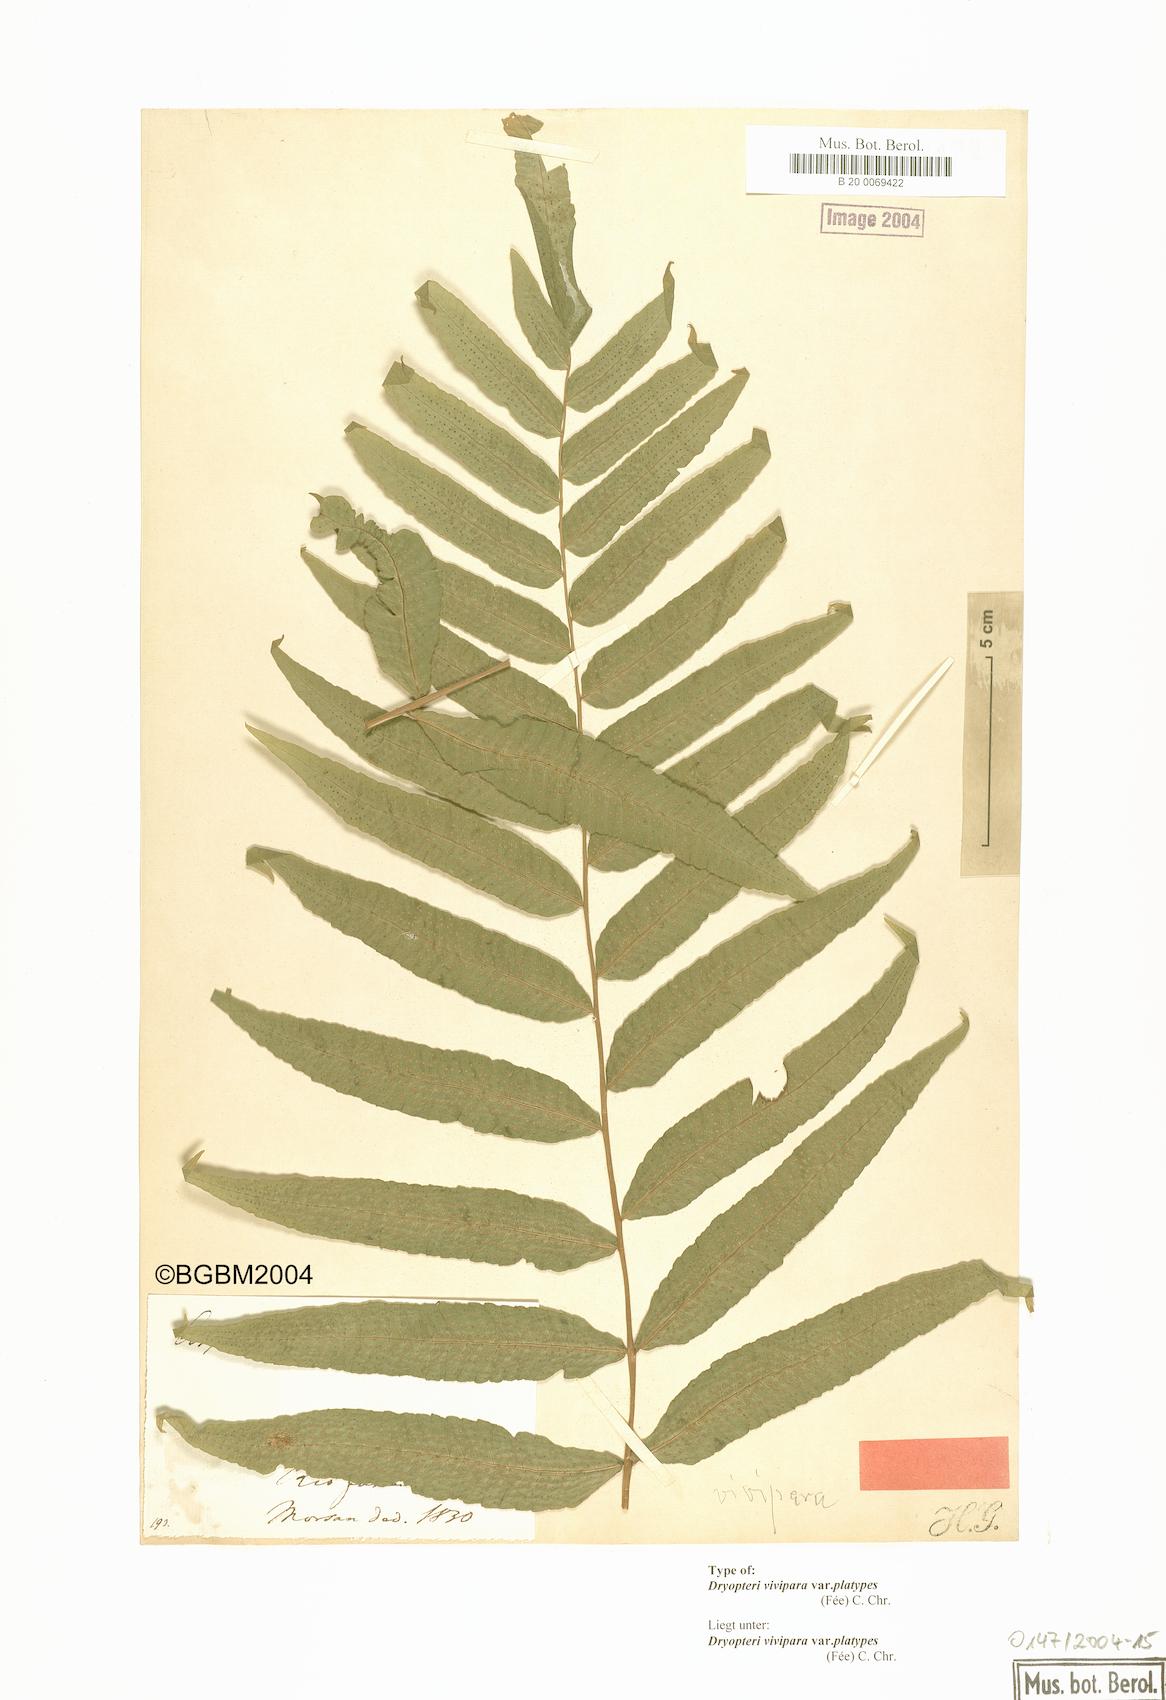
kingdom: Plantae
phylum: Tracheophyta
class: Polypodiopsida
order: Polypodiales
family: Thelypteridaceae
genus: Goniopteris
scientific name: Goniopteris platypes
